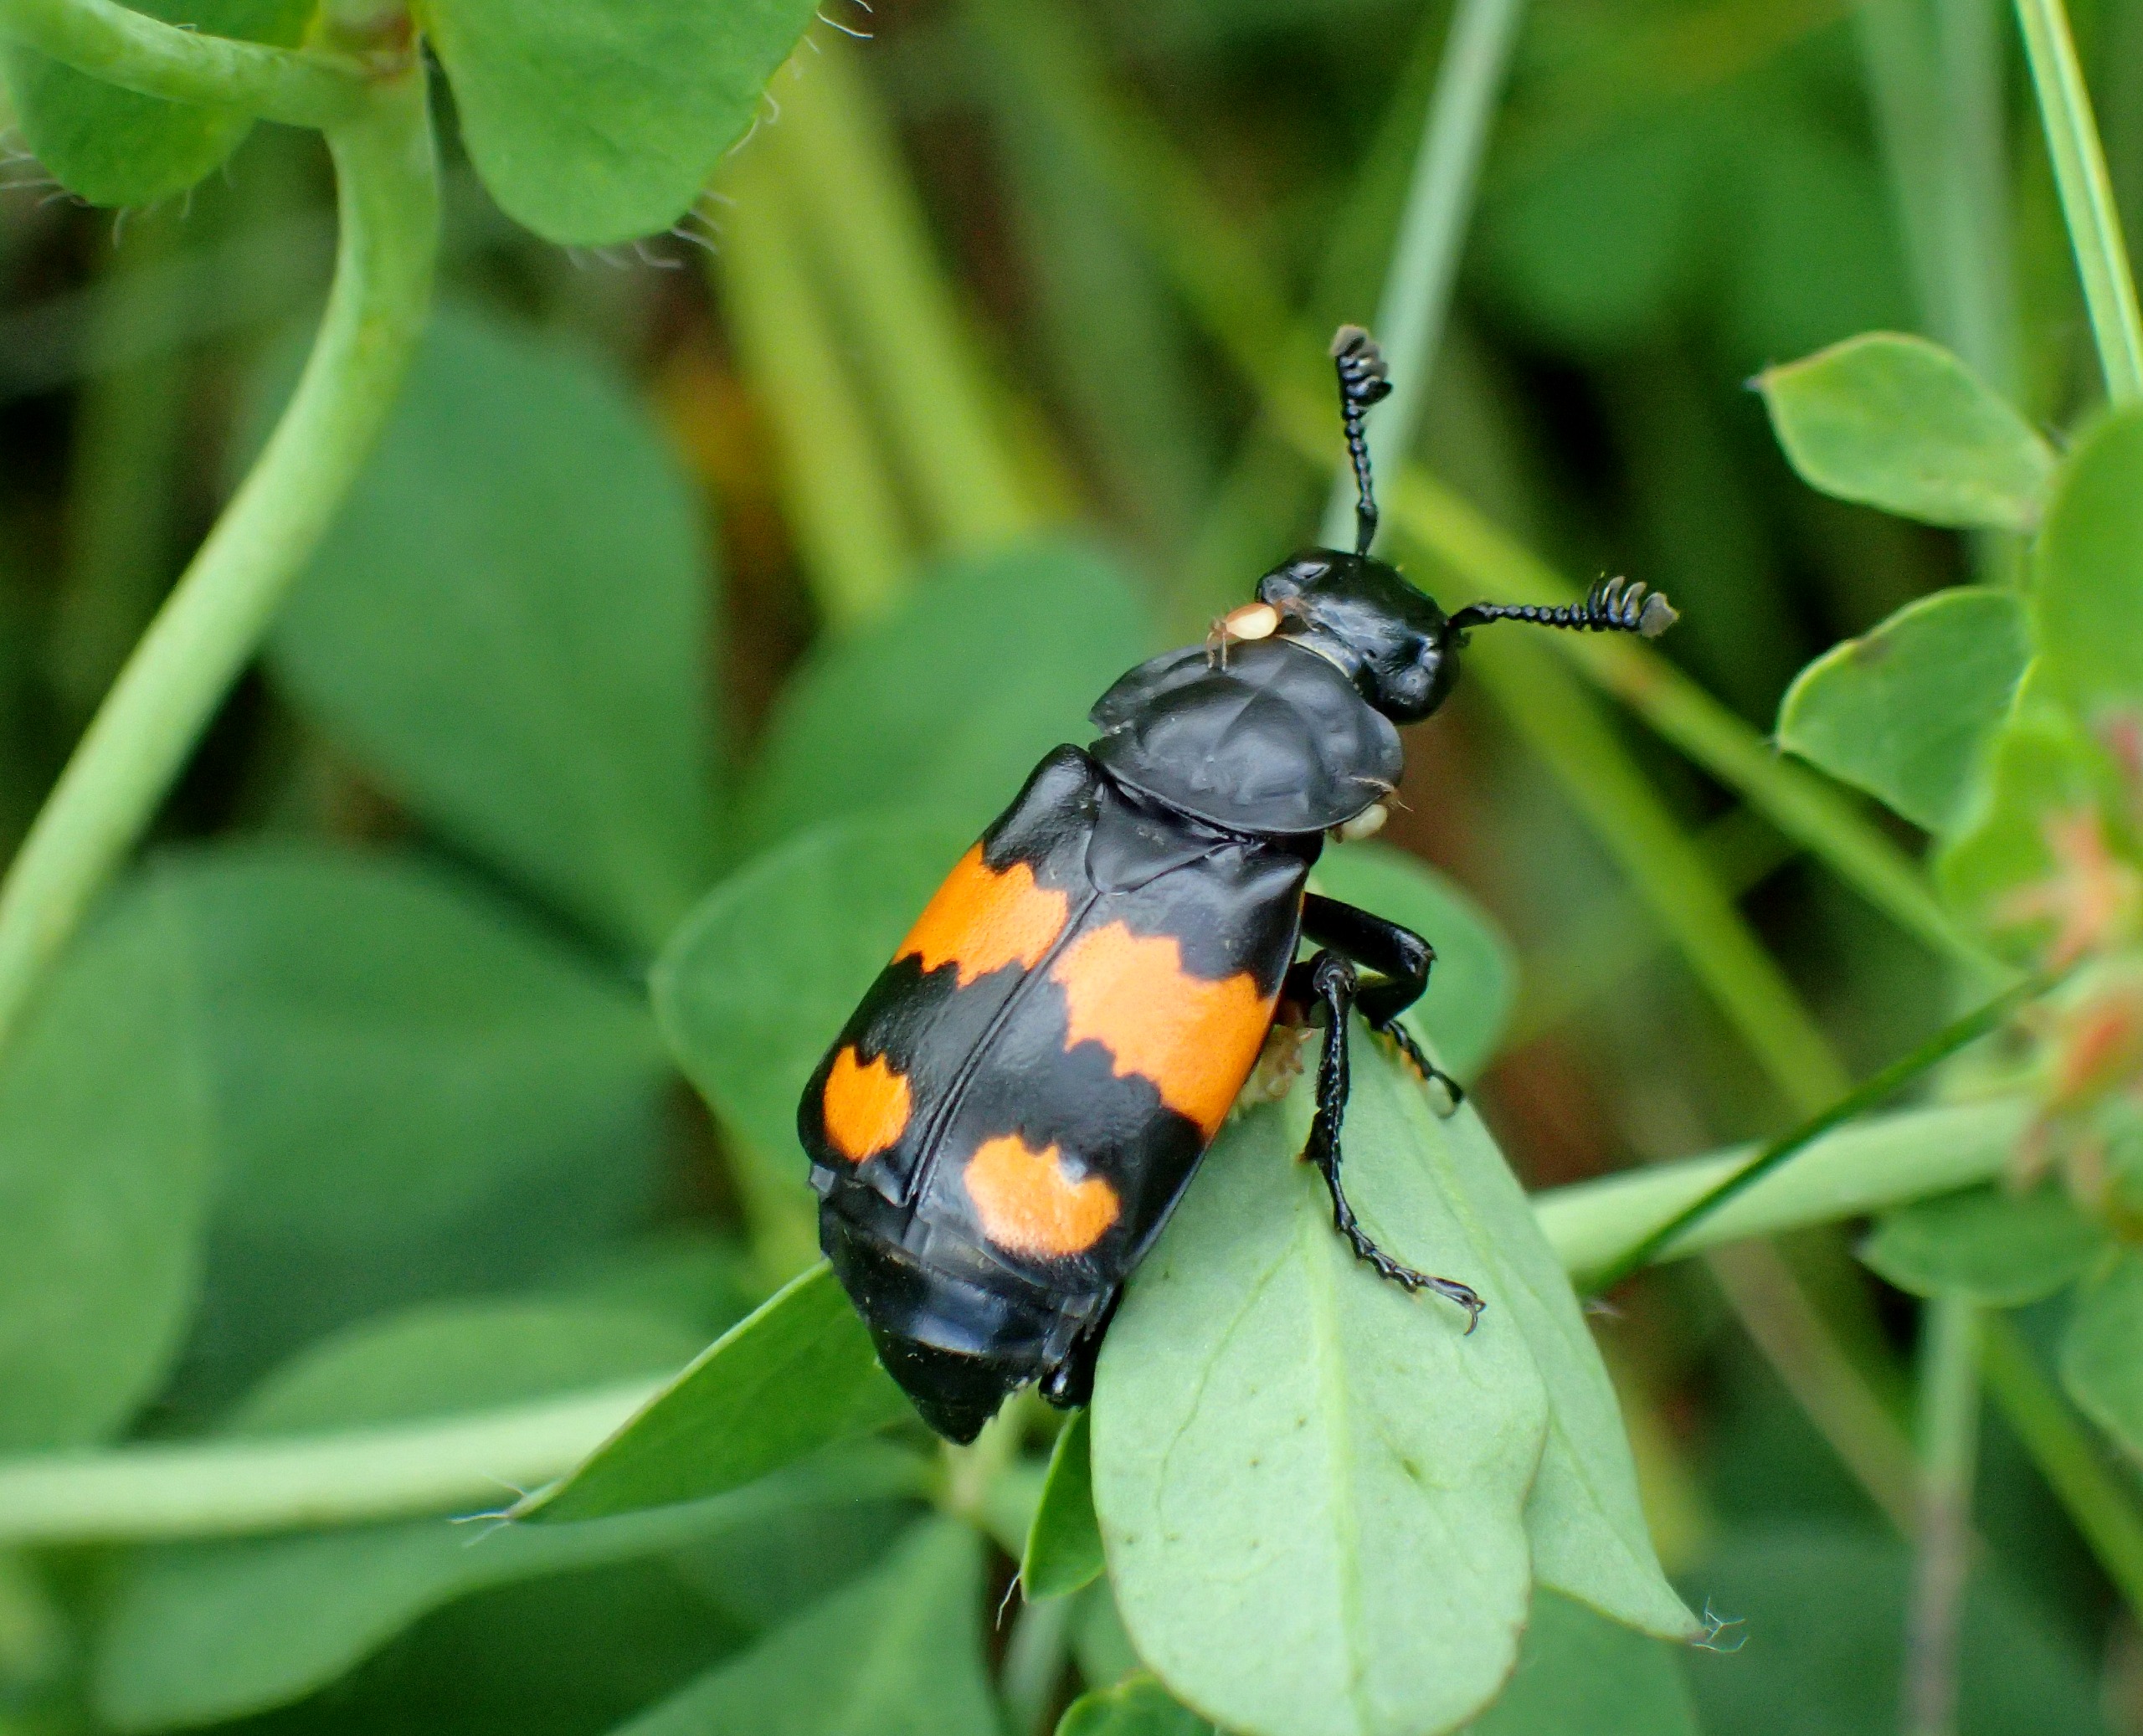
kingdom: Animalia
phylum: Arthropoda
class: Insecta
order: Coleoptera
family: Staphylinidae
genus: Nicrophorus
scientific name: Nicrophorus vespilloides
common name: Sortkøllet ådselgraver
